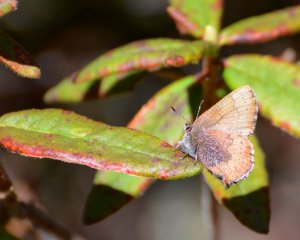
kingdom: Animalia
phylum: Arthropoda
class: Insecta
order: Lepidoptera
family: Lycaenidae
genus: Incisalia
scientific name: Incisalia irioides
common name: Brown Elfin
